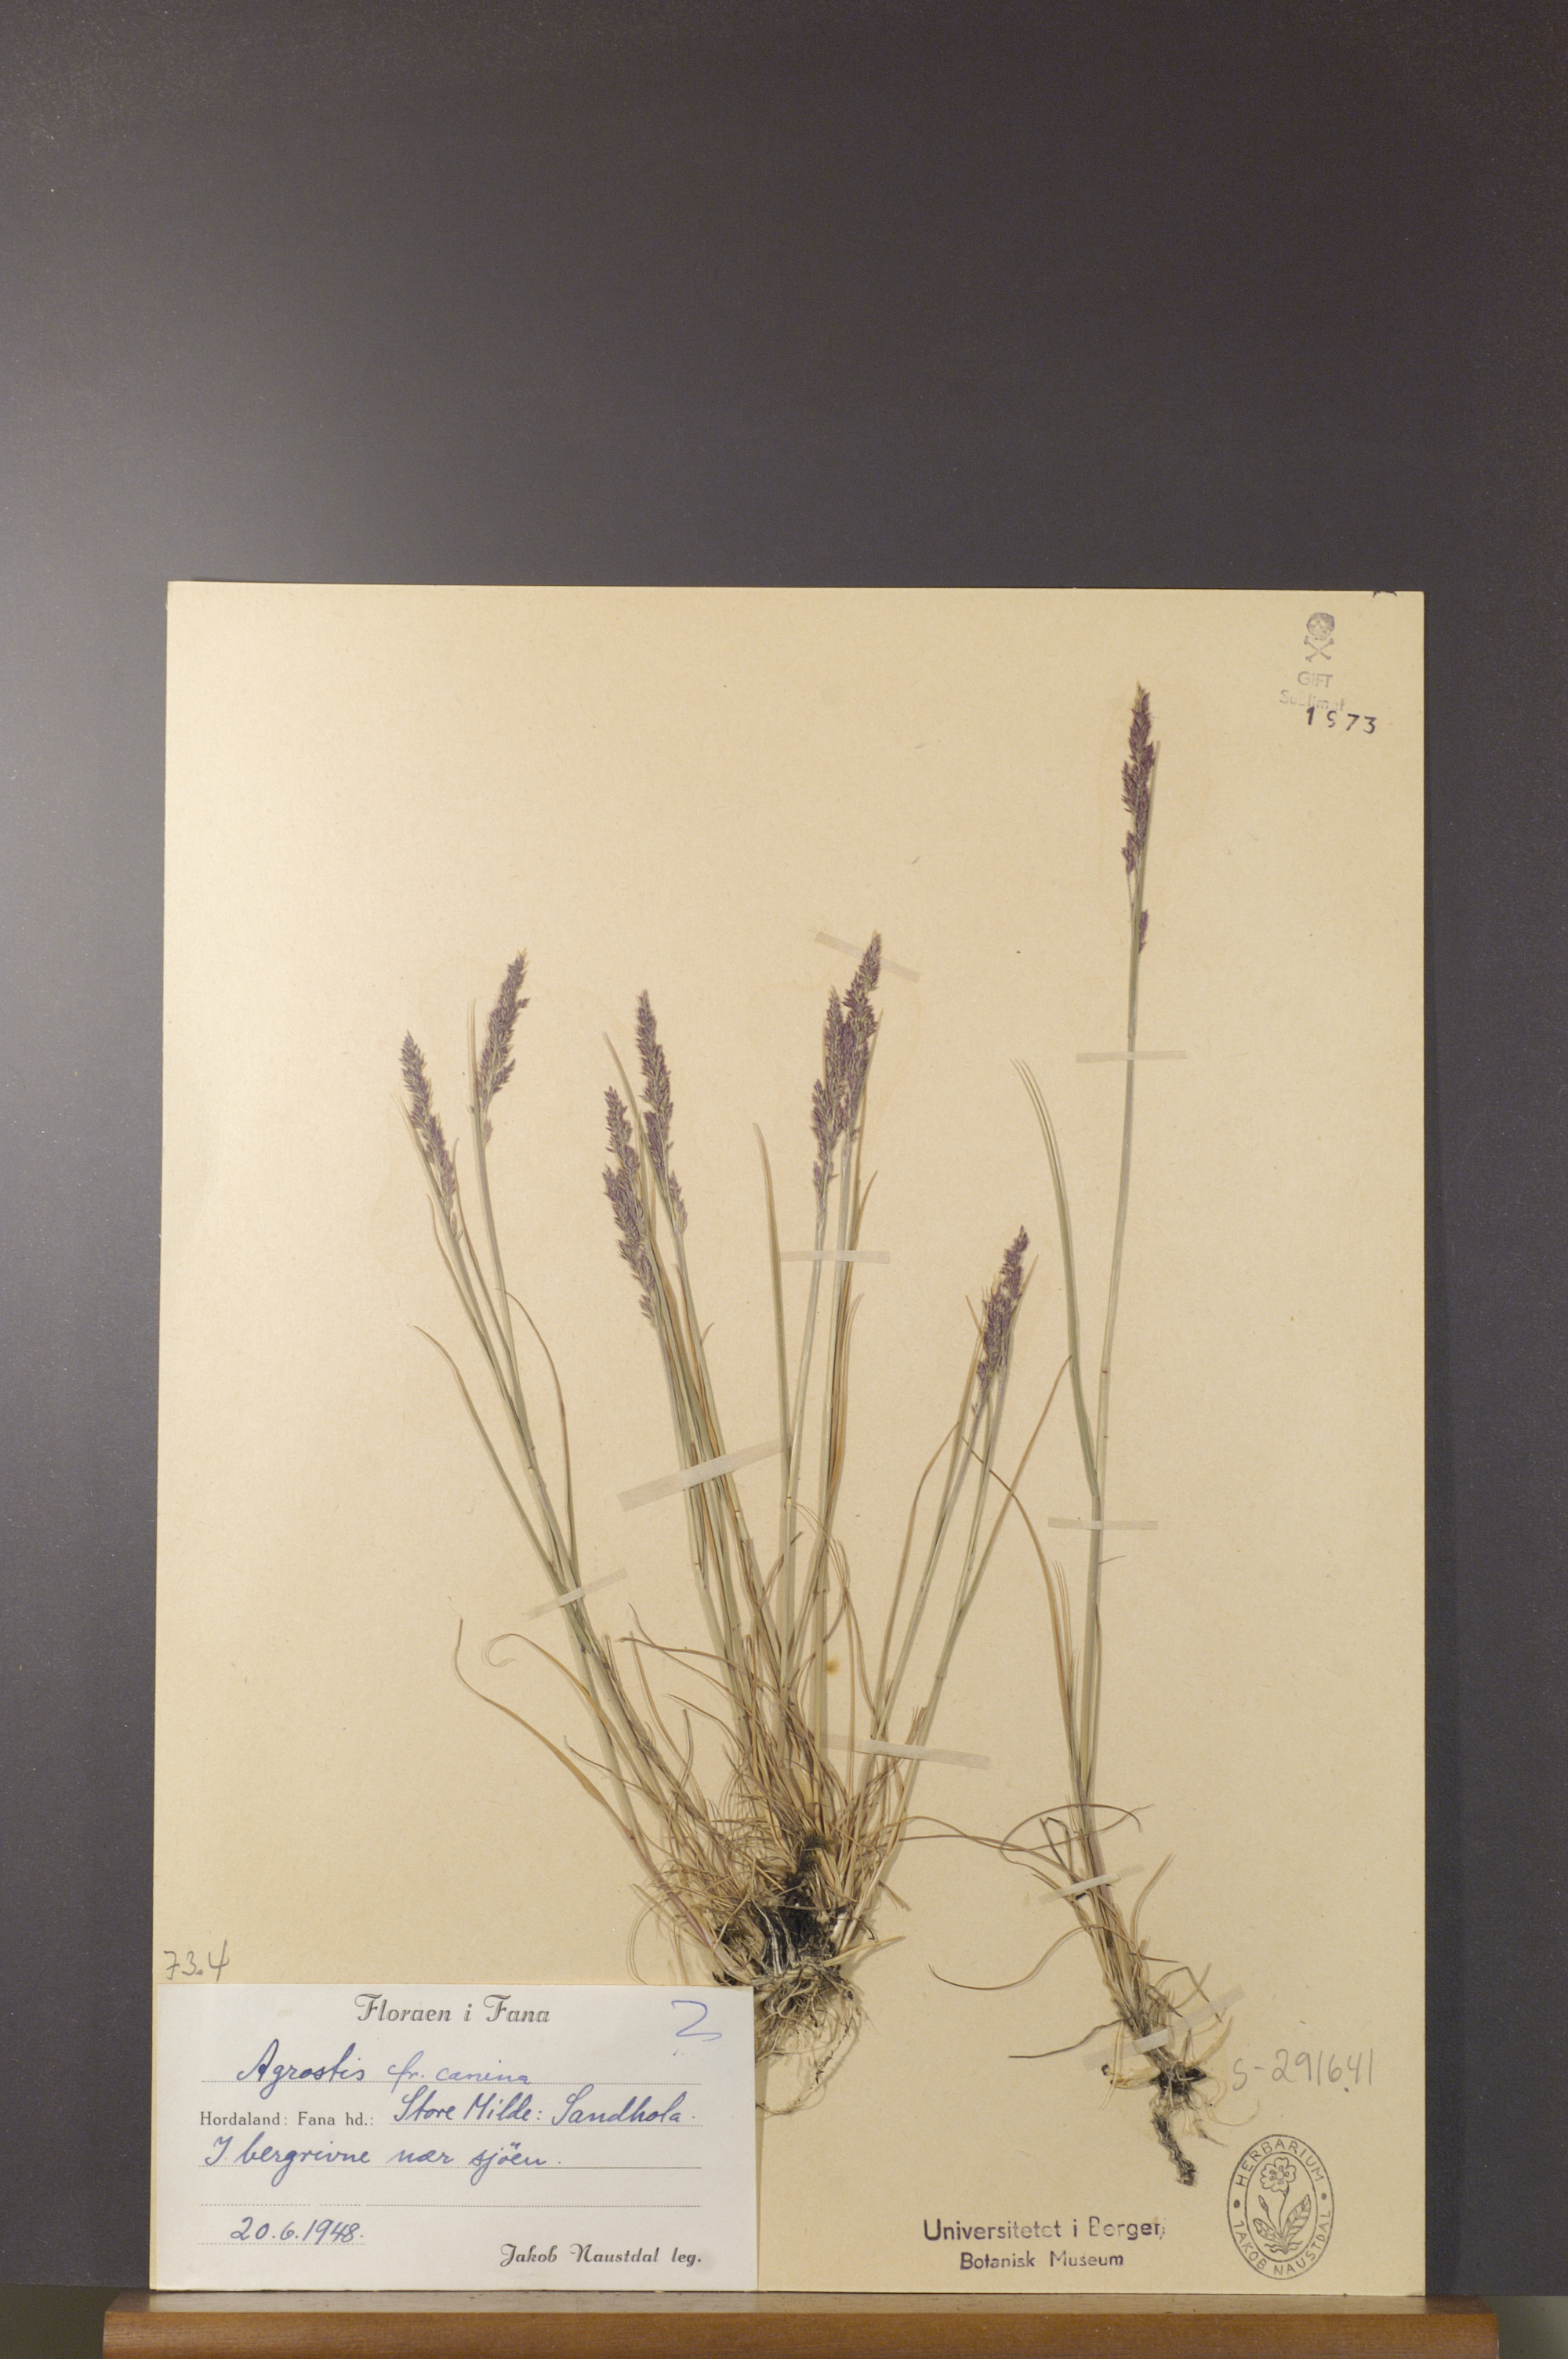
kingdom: Plantae
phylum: Tracheophyta
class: Liliopsida
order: Poales
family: Poaceae
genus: Agrostis
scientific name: Agrostis canina
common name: Velvet bent
